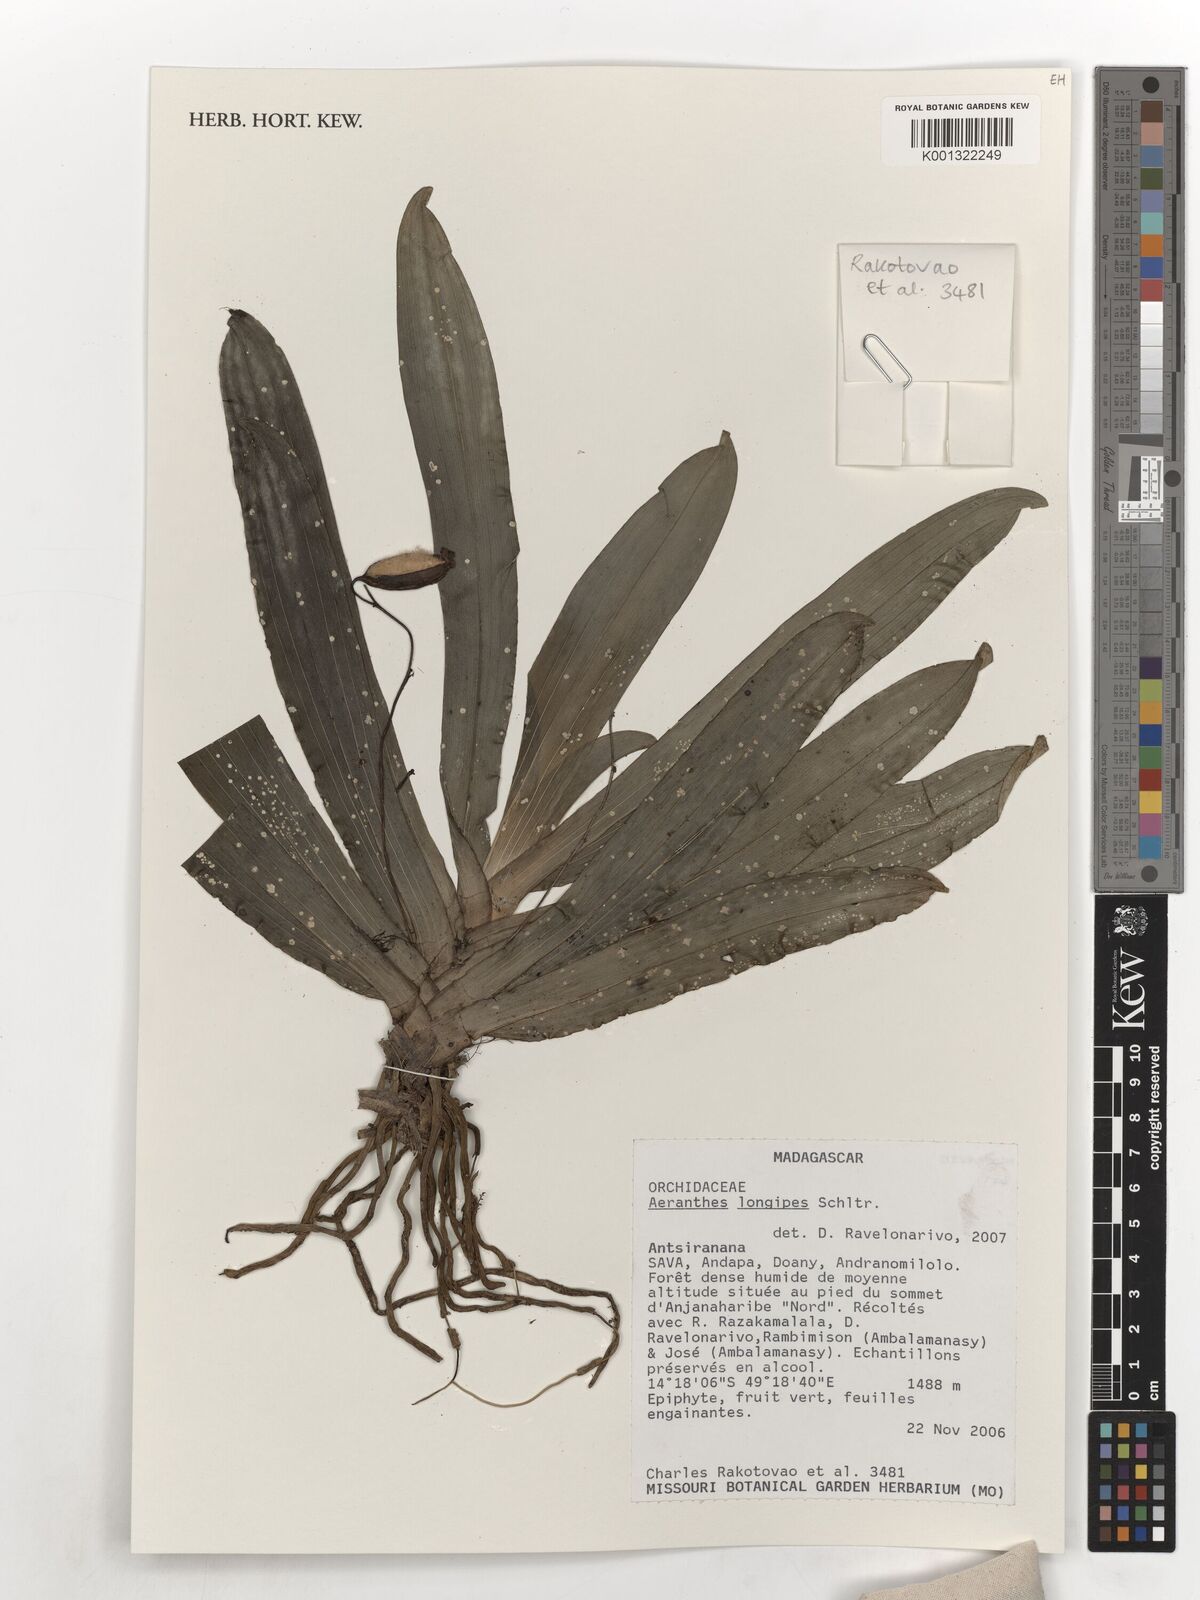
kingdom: Plantae
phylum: Tracheophyta
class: Liliopsida
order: Asparagales
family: Orchidaceae
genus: Aeranthes
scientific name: Aeranthes strangulata
